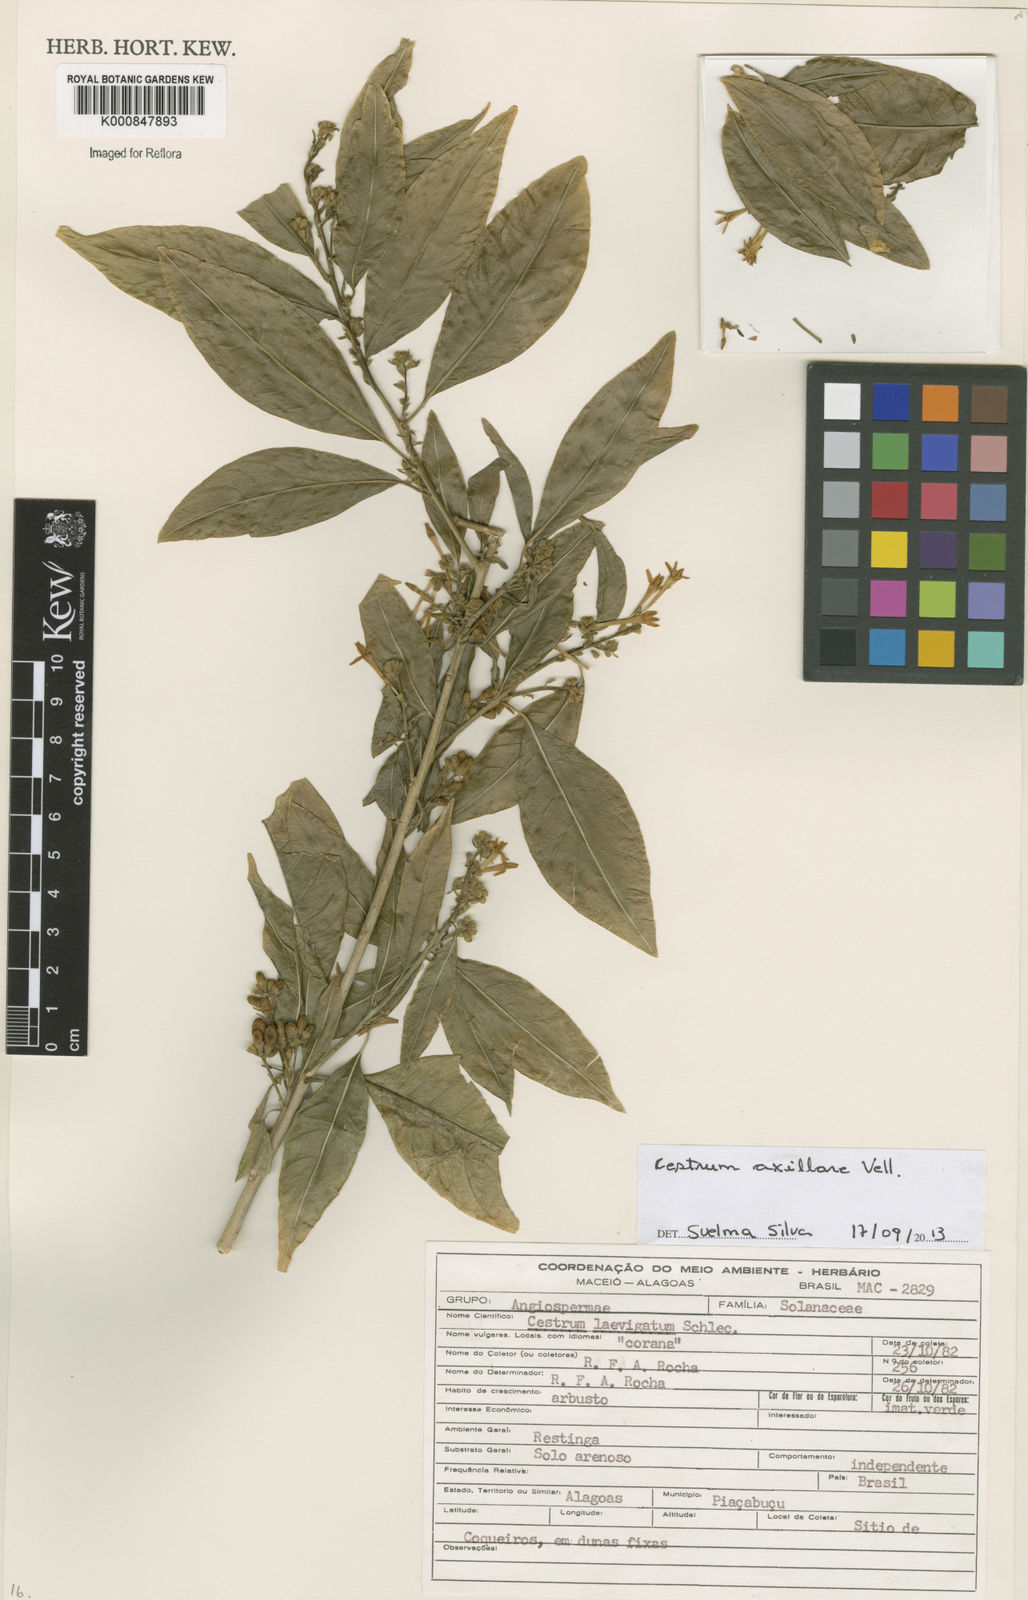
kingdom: Plantae
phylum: Tracheophyta
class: Magnoliopsida
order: Solanales
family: Solanaceae
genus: Cestrum
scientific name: Cestrum laevigatum
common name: Inkberry
